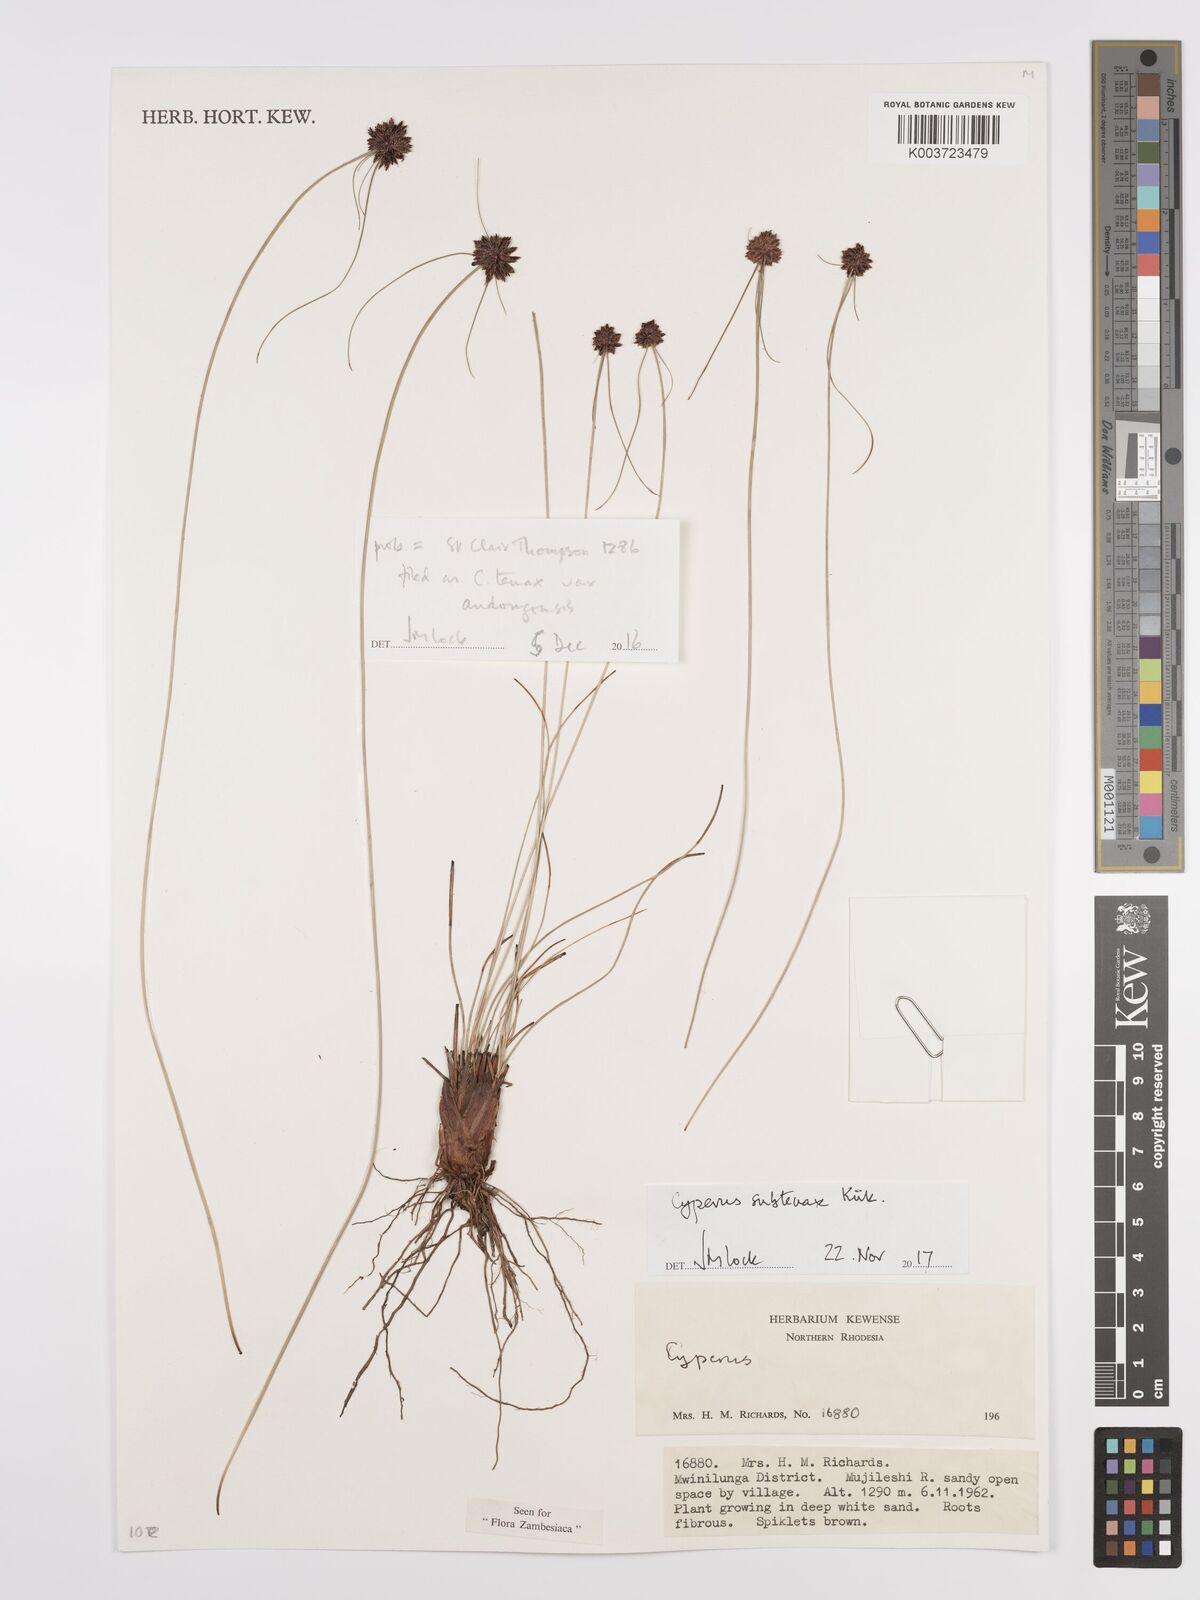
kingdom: Plantae
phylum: Tracheophyta
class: Liliopsida
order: Poales
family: Cyperaceae
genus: Cyperus
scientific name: Cyperus subtenax
